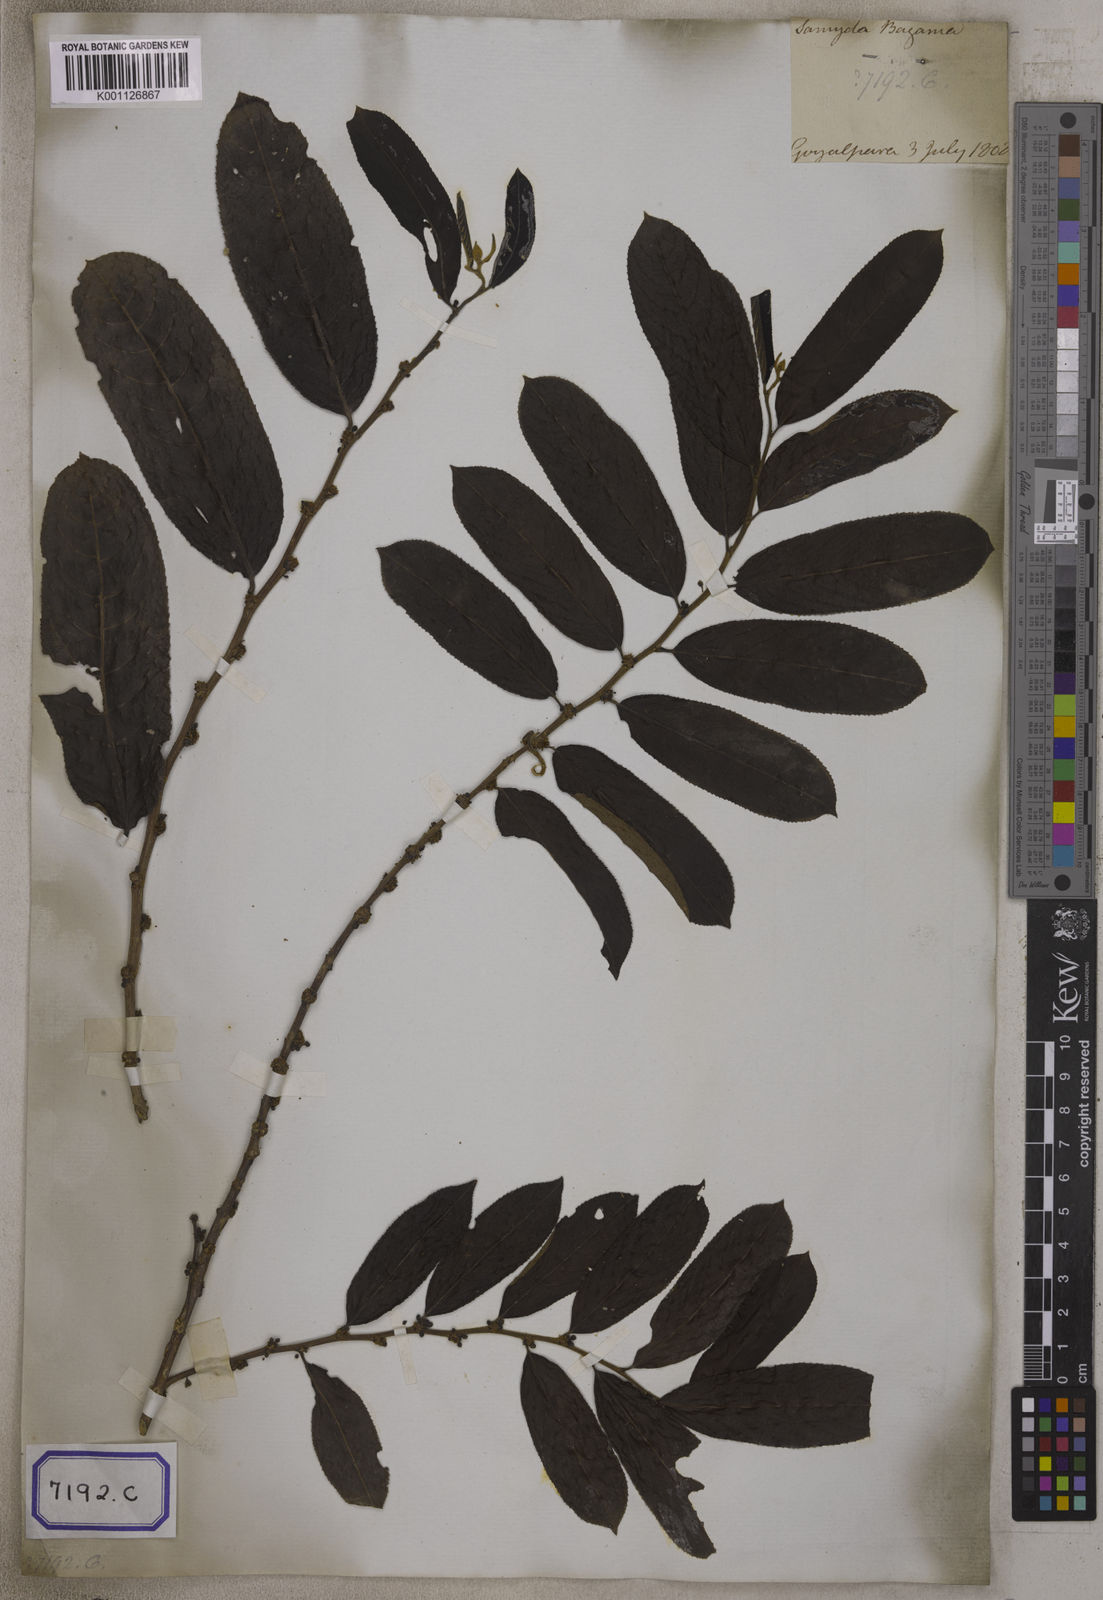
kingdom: Plantae
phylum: Tracheophyta
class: Magnoliopsida
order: Malpighiales
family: Salicaceae
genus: Casearia
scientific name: Casearia
